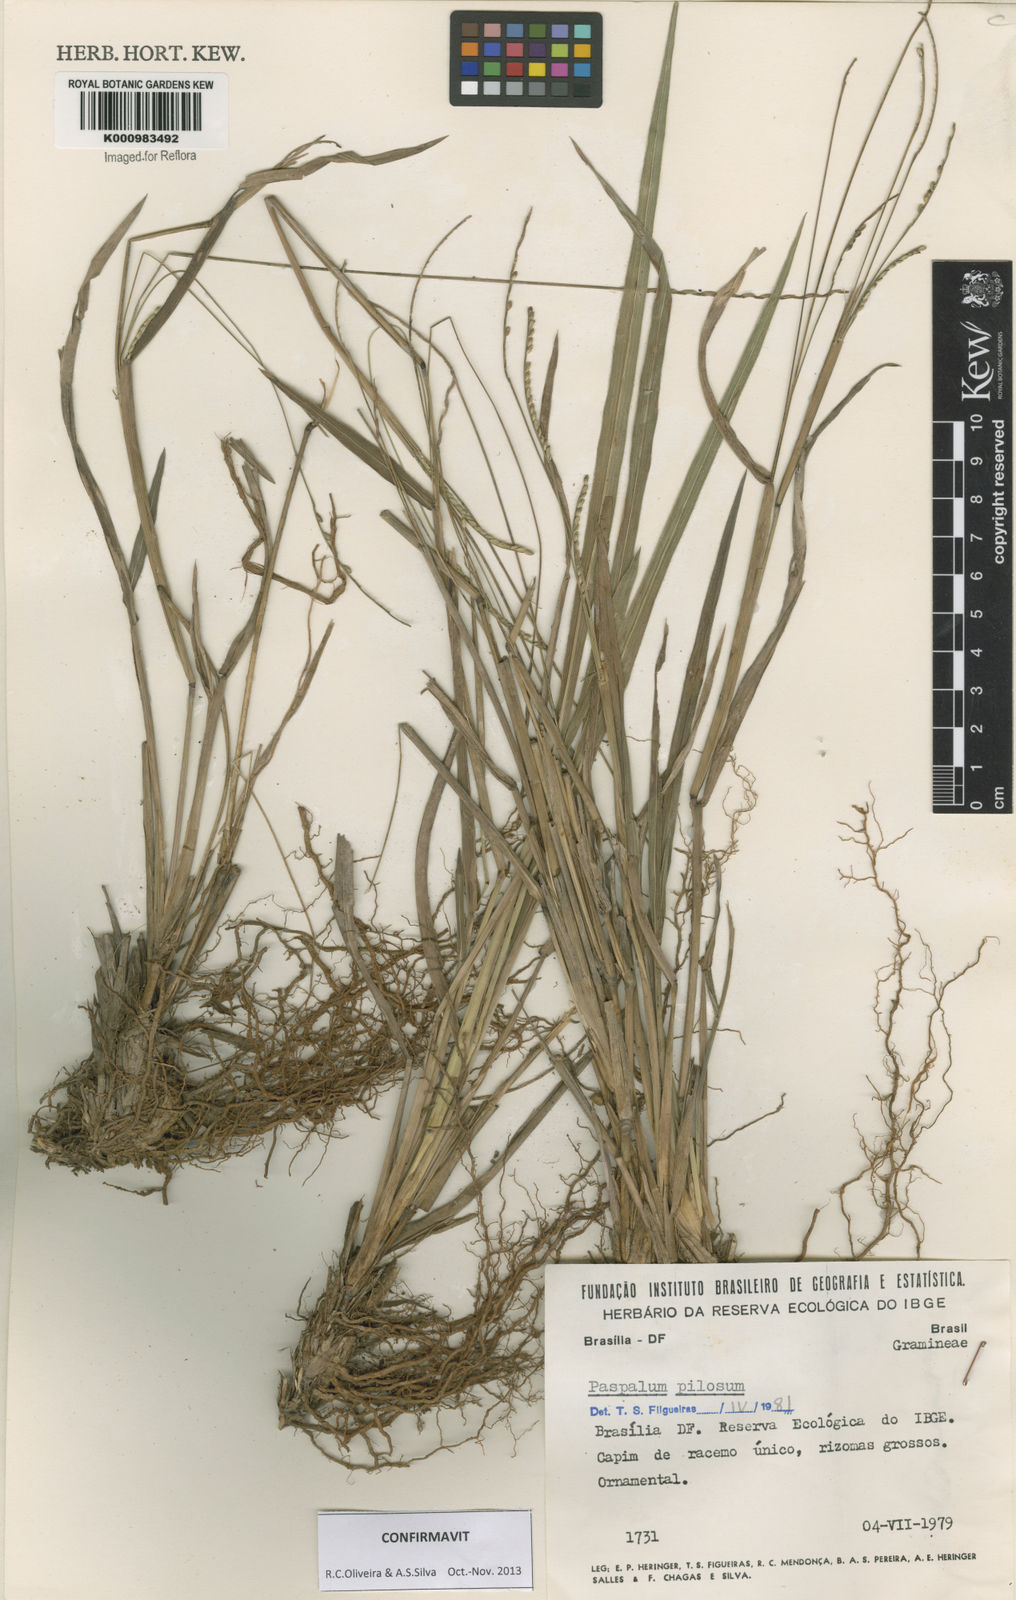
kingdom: Plantae
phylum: Tracheophyta
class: Liliopsida
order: Poales
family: Poaceae
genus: Paspalum
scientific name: Paspalum pilosum
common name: Crowngrass
